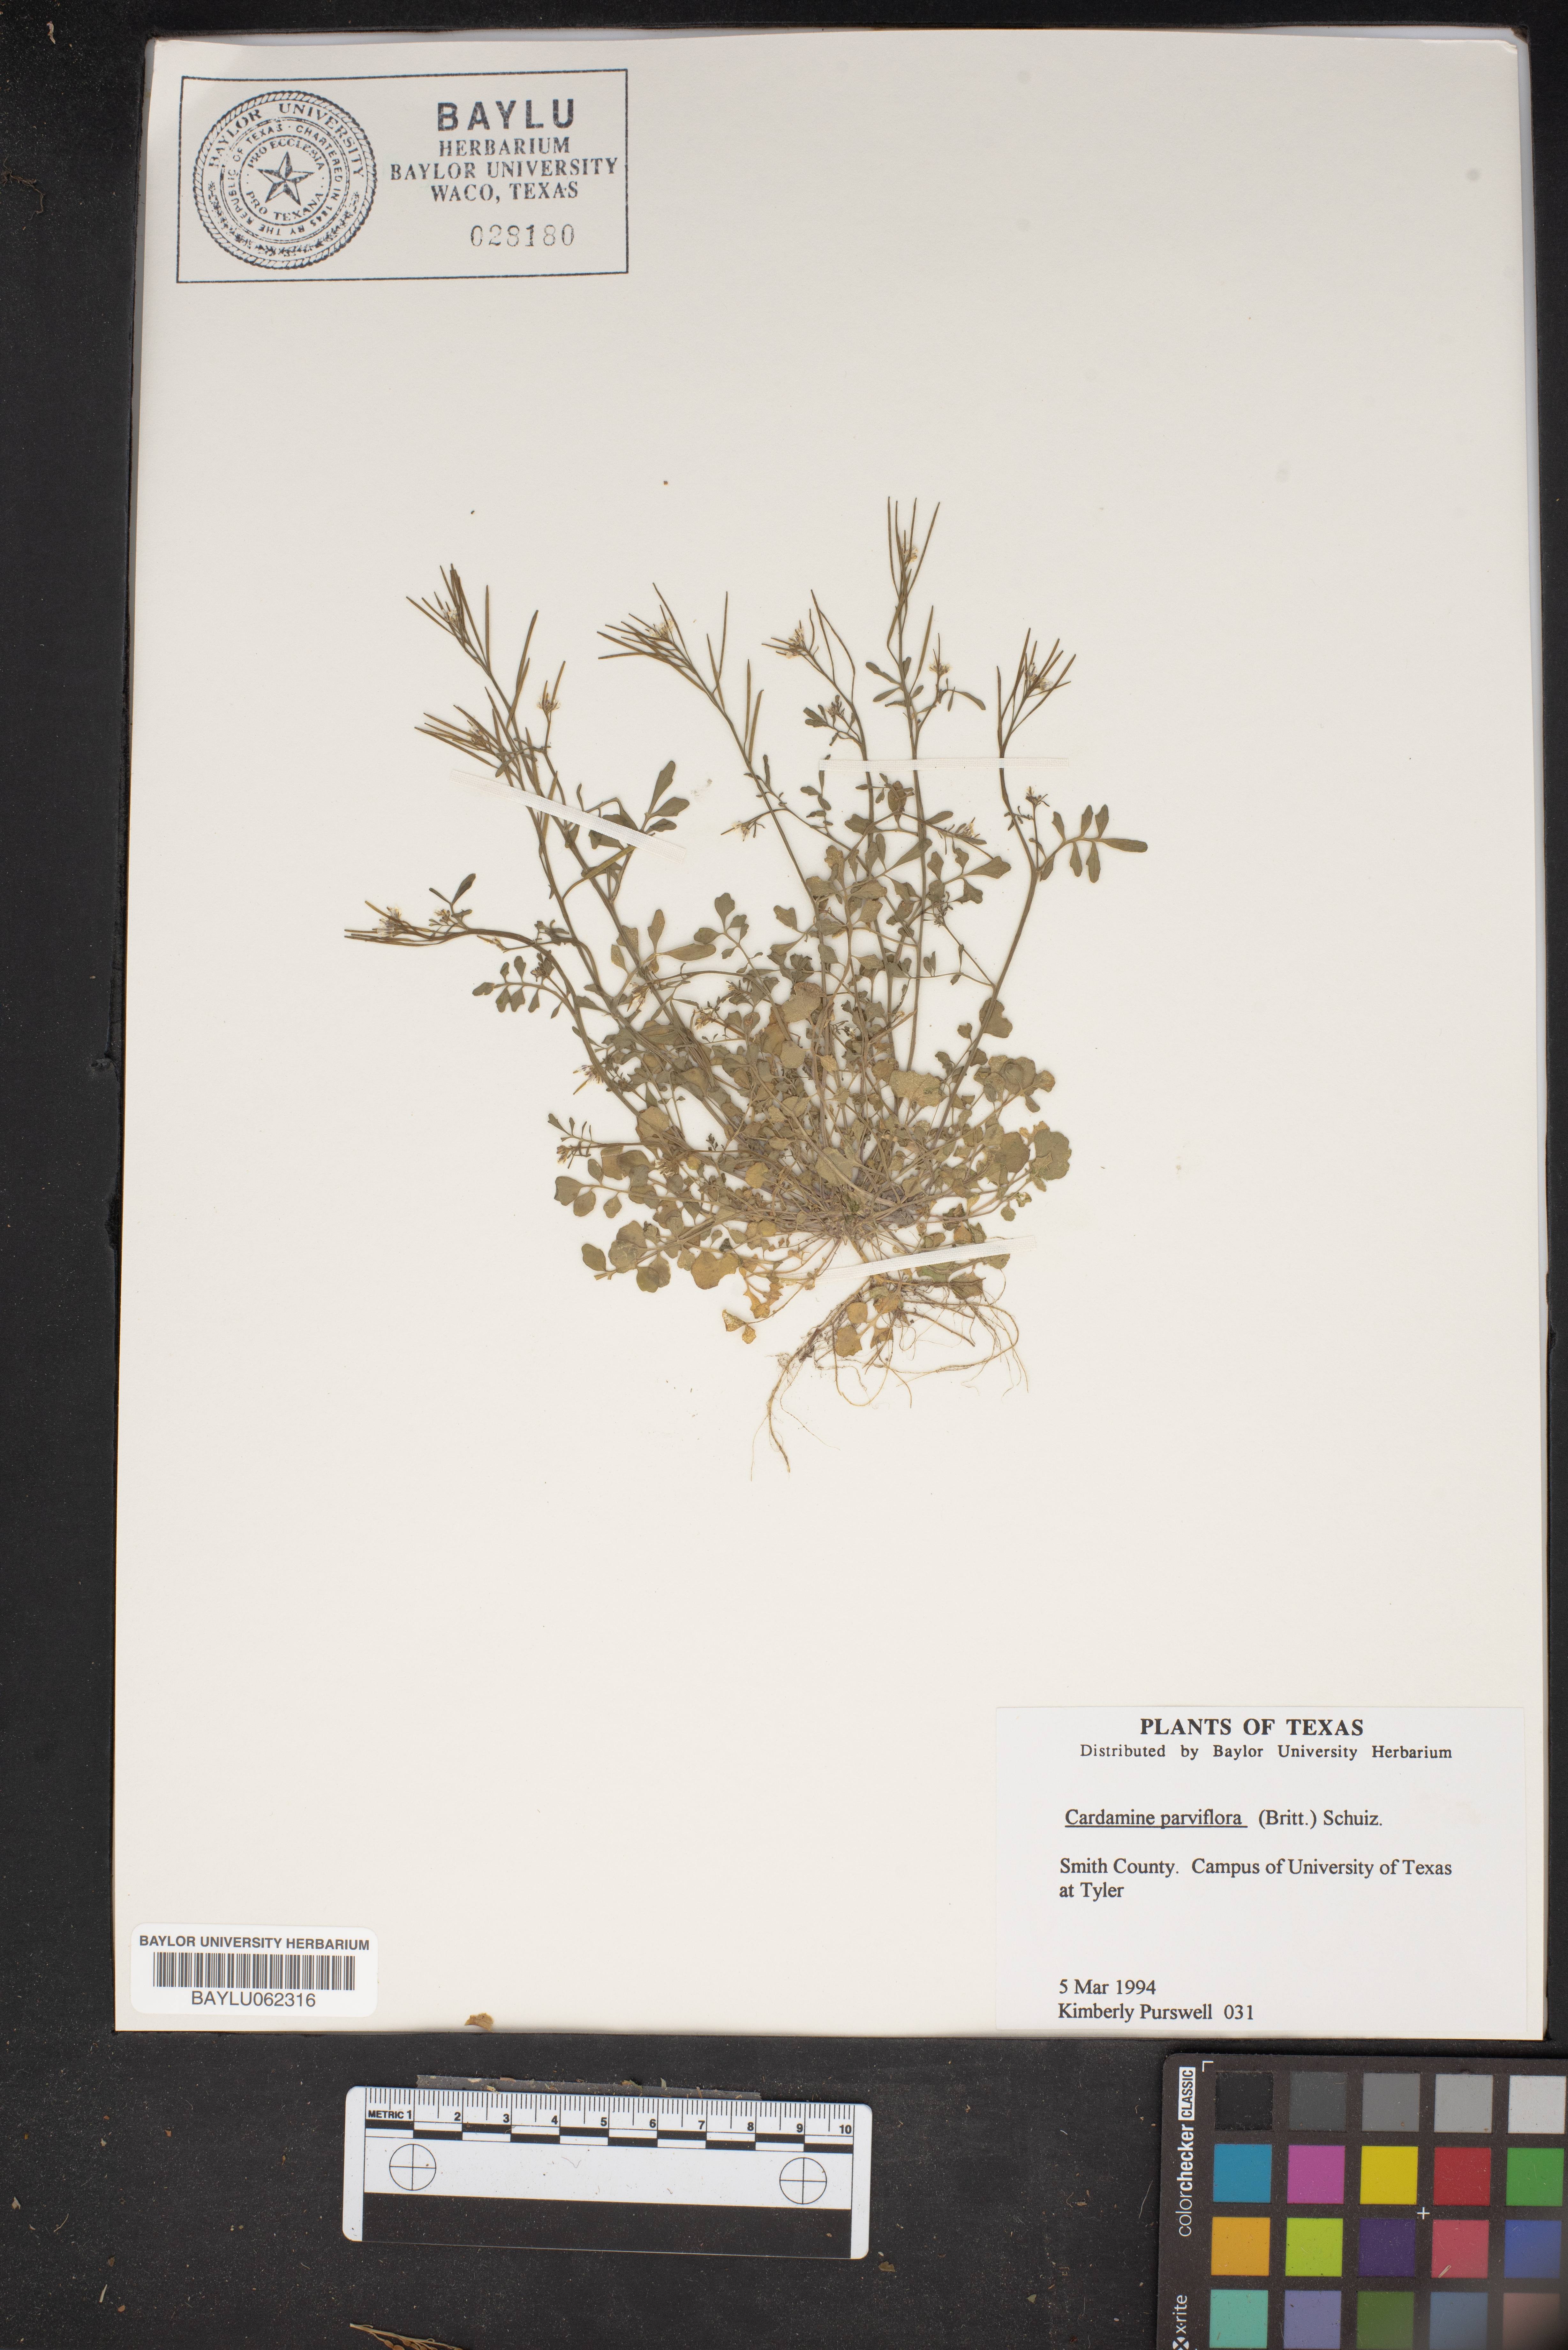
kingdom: Plantae
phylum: Tracheophyta
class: Magnoliopsida
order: Brassicales
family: Brassicaceae
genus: Cardamine
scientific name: Cardamine parviflora
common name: Sand bittercress
